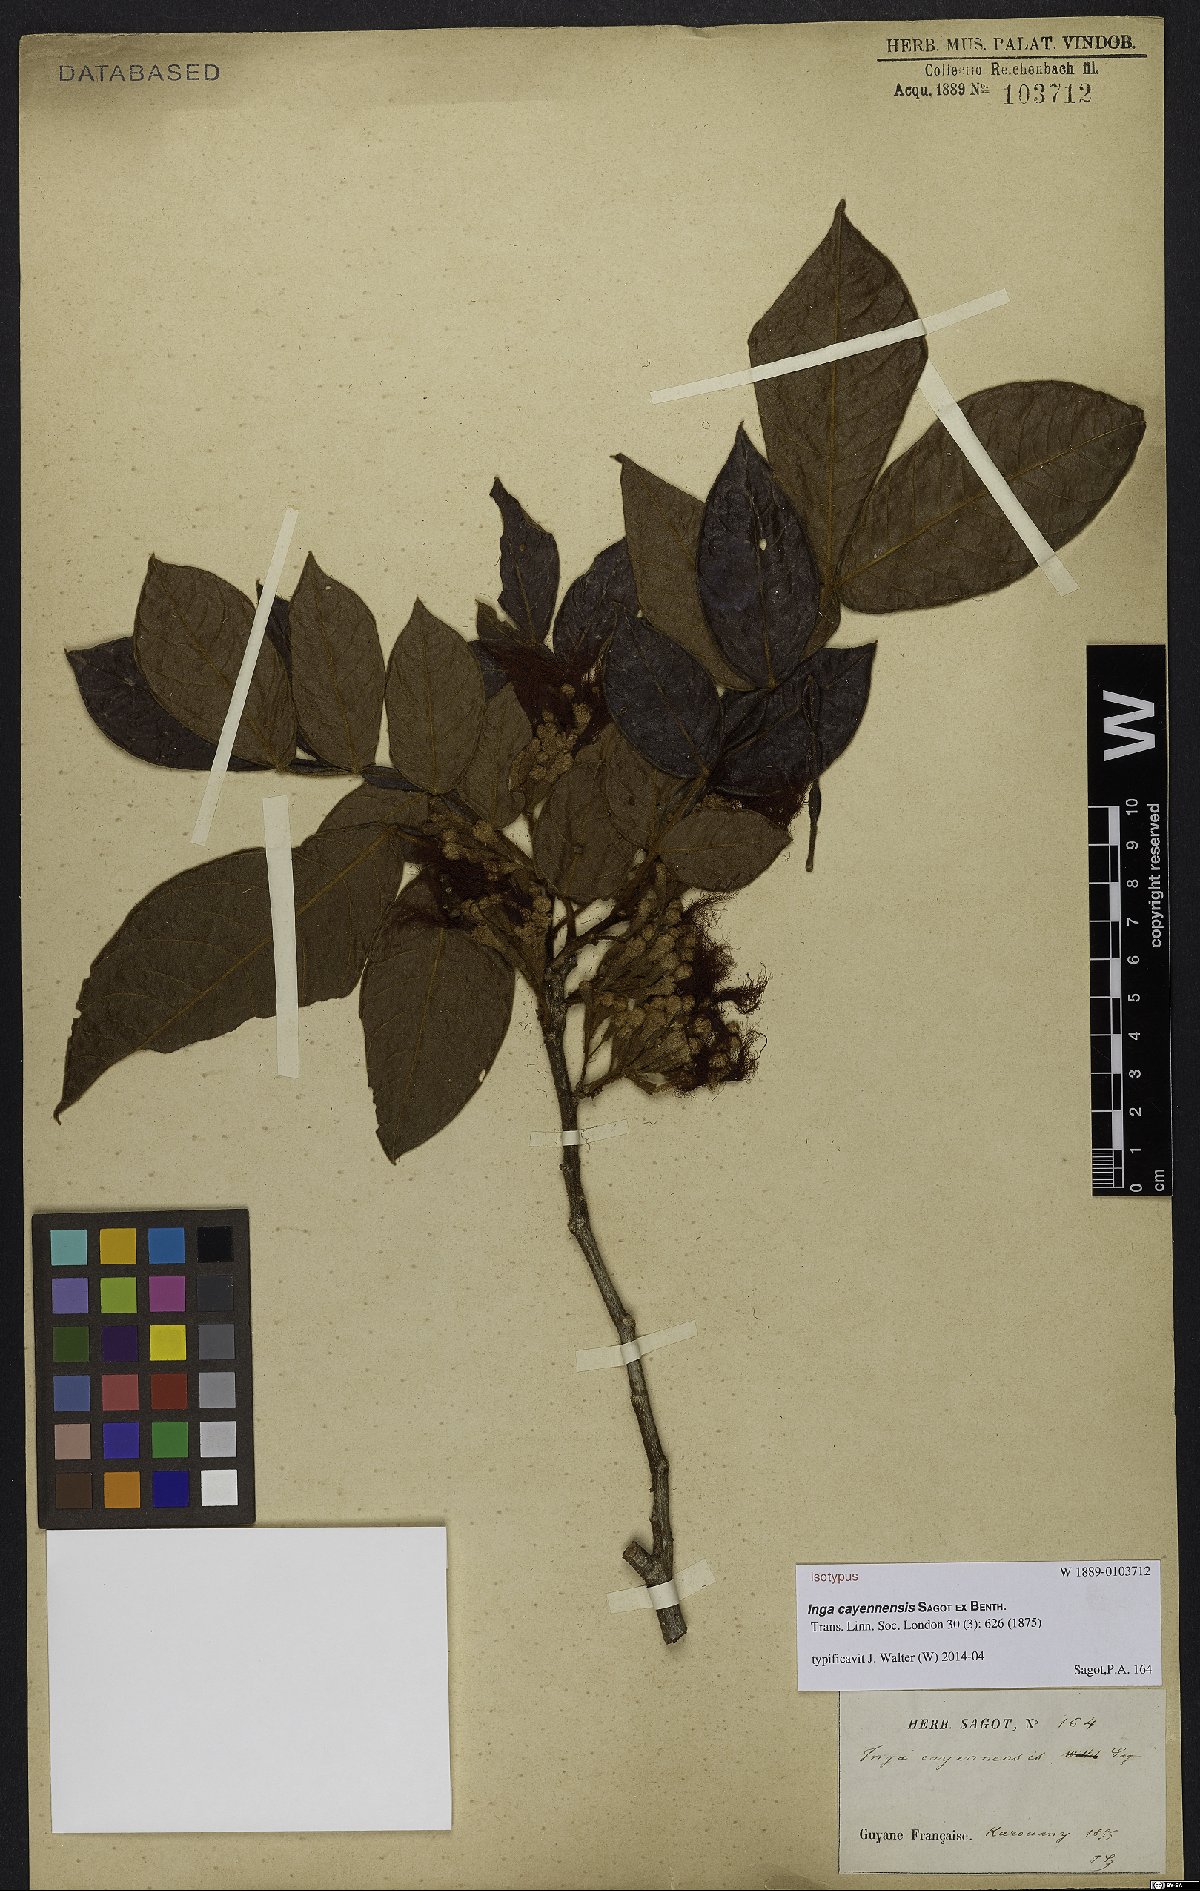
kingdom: Plantae
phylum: Tracheophyta
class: Magnoliopsida
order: Fabales
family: Fabaceae
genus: Inga
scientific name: Inga cayennensis
